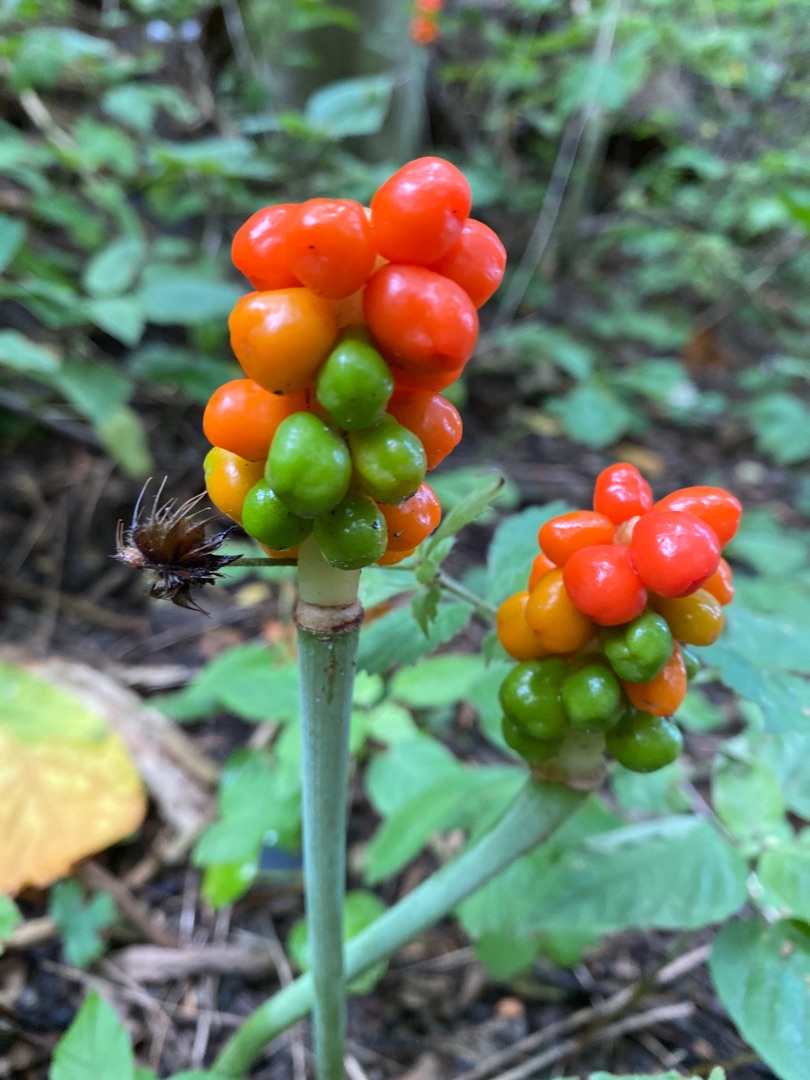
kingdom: Plantae
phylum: Tracheophyta
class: Liliopsida
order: Alismatales
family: Araceae
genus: Arum
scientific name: Arum
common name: Arumslægten
